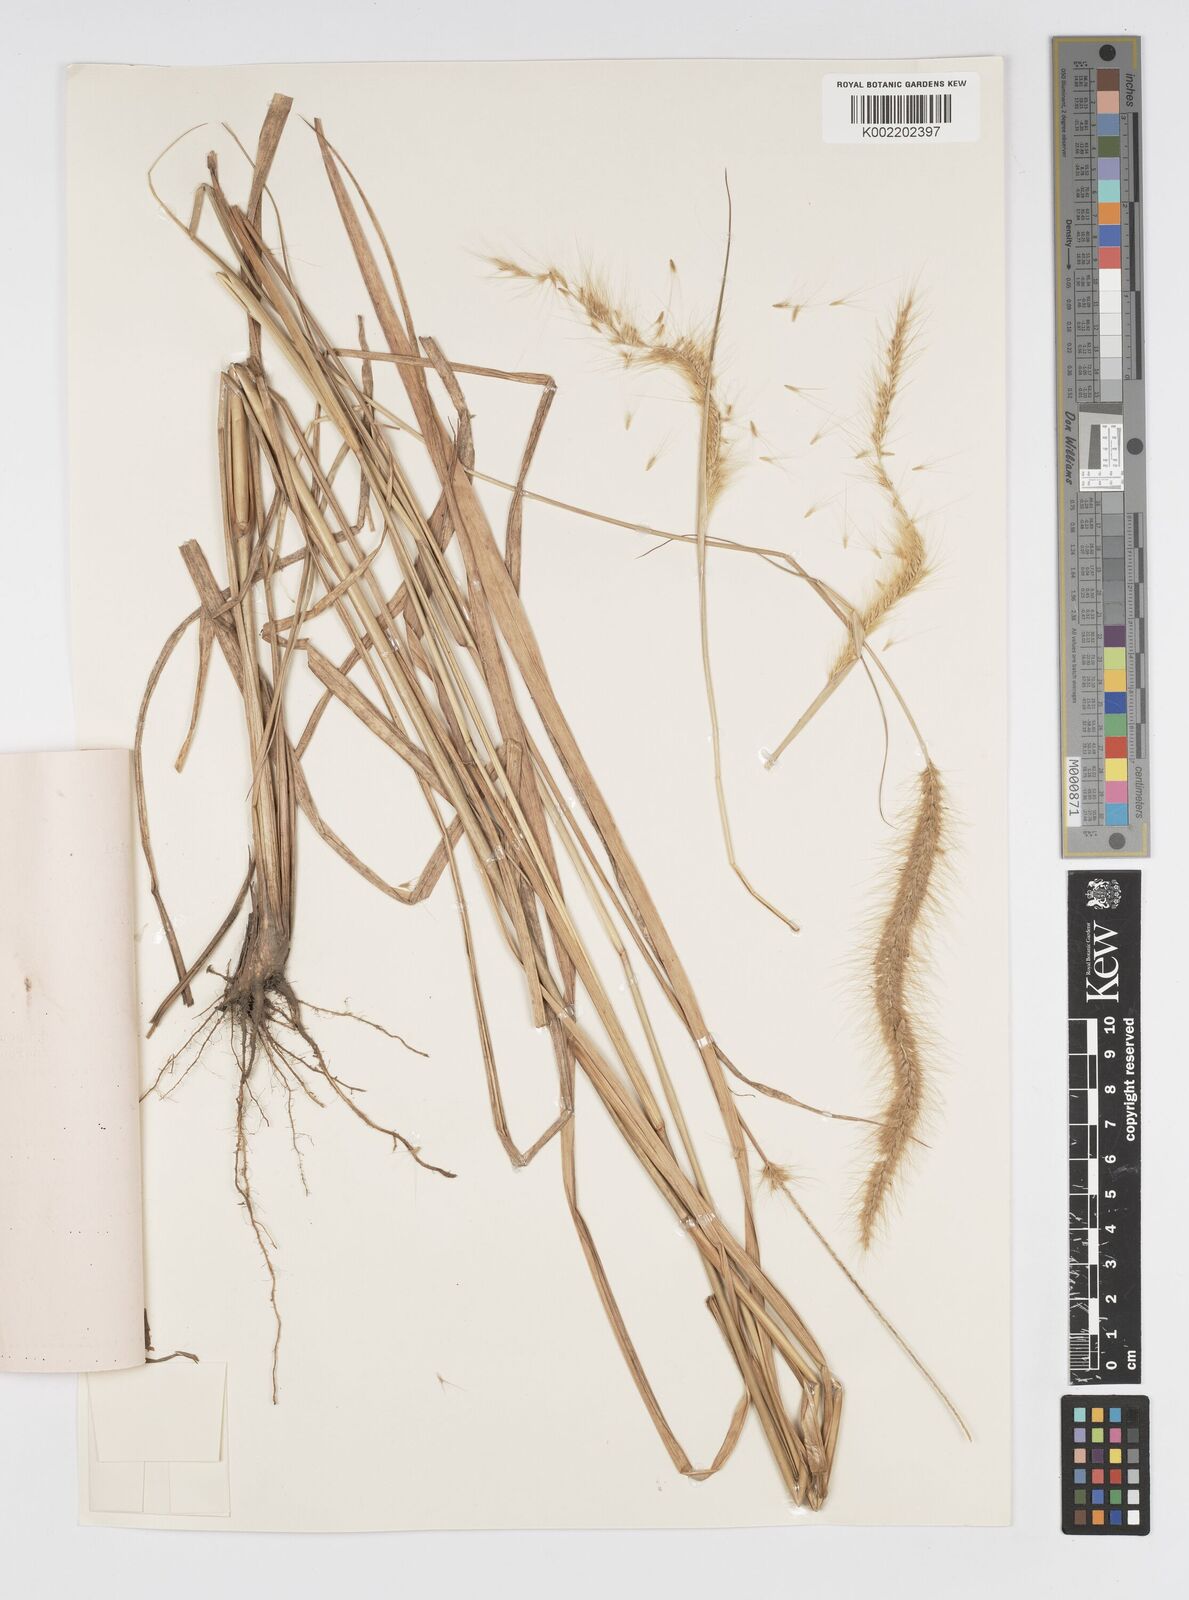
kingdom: Plantae
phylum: Tracheophyta
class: Liliopsida
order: Poales
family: Poaceae
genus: Setaria
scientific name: Setaria parviflora
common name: Knotroot bristle-grass
